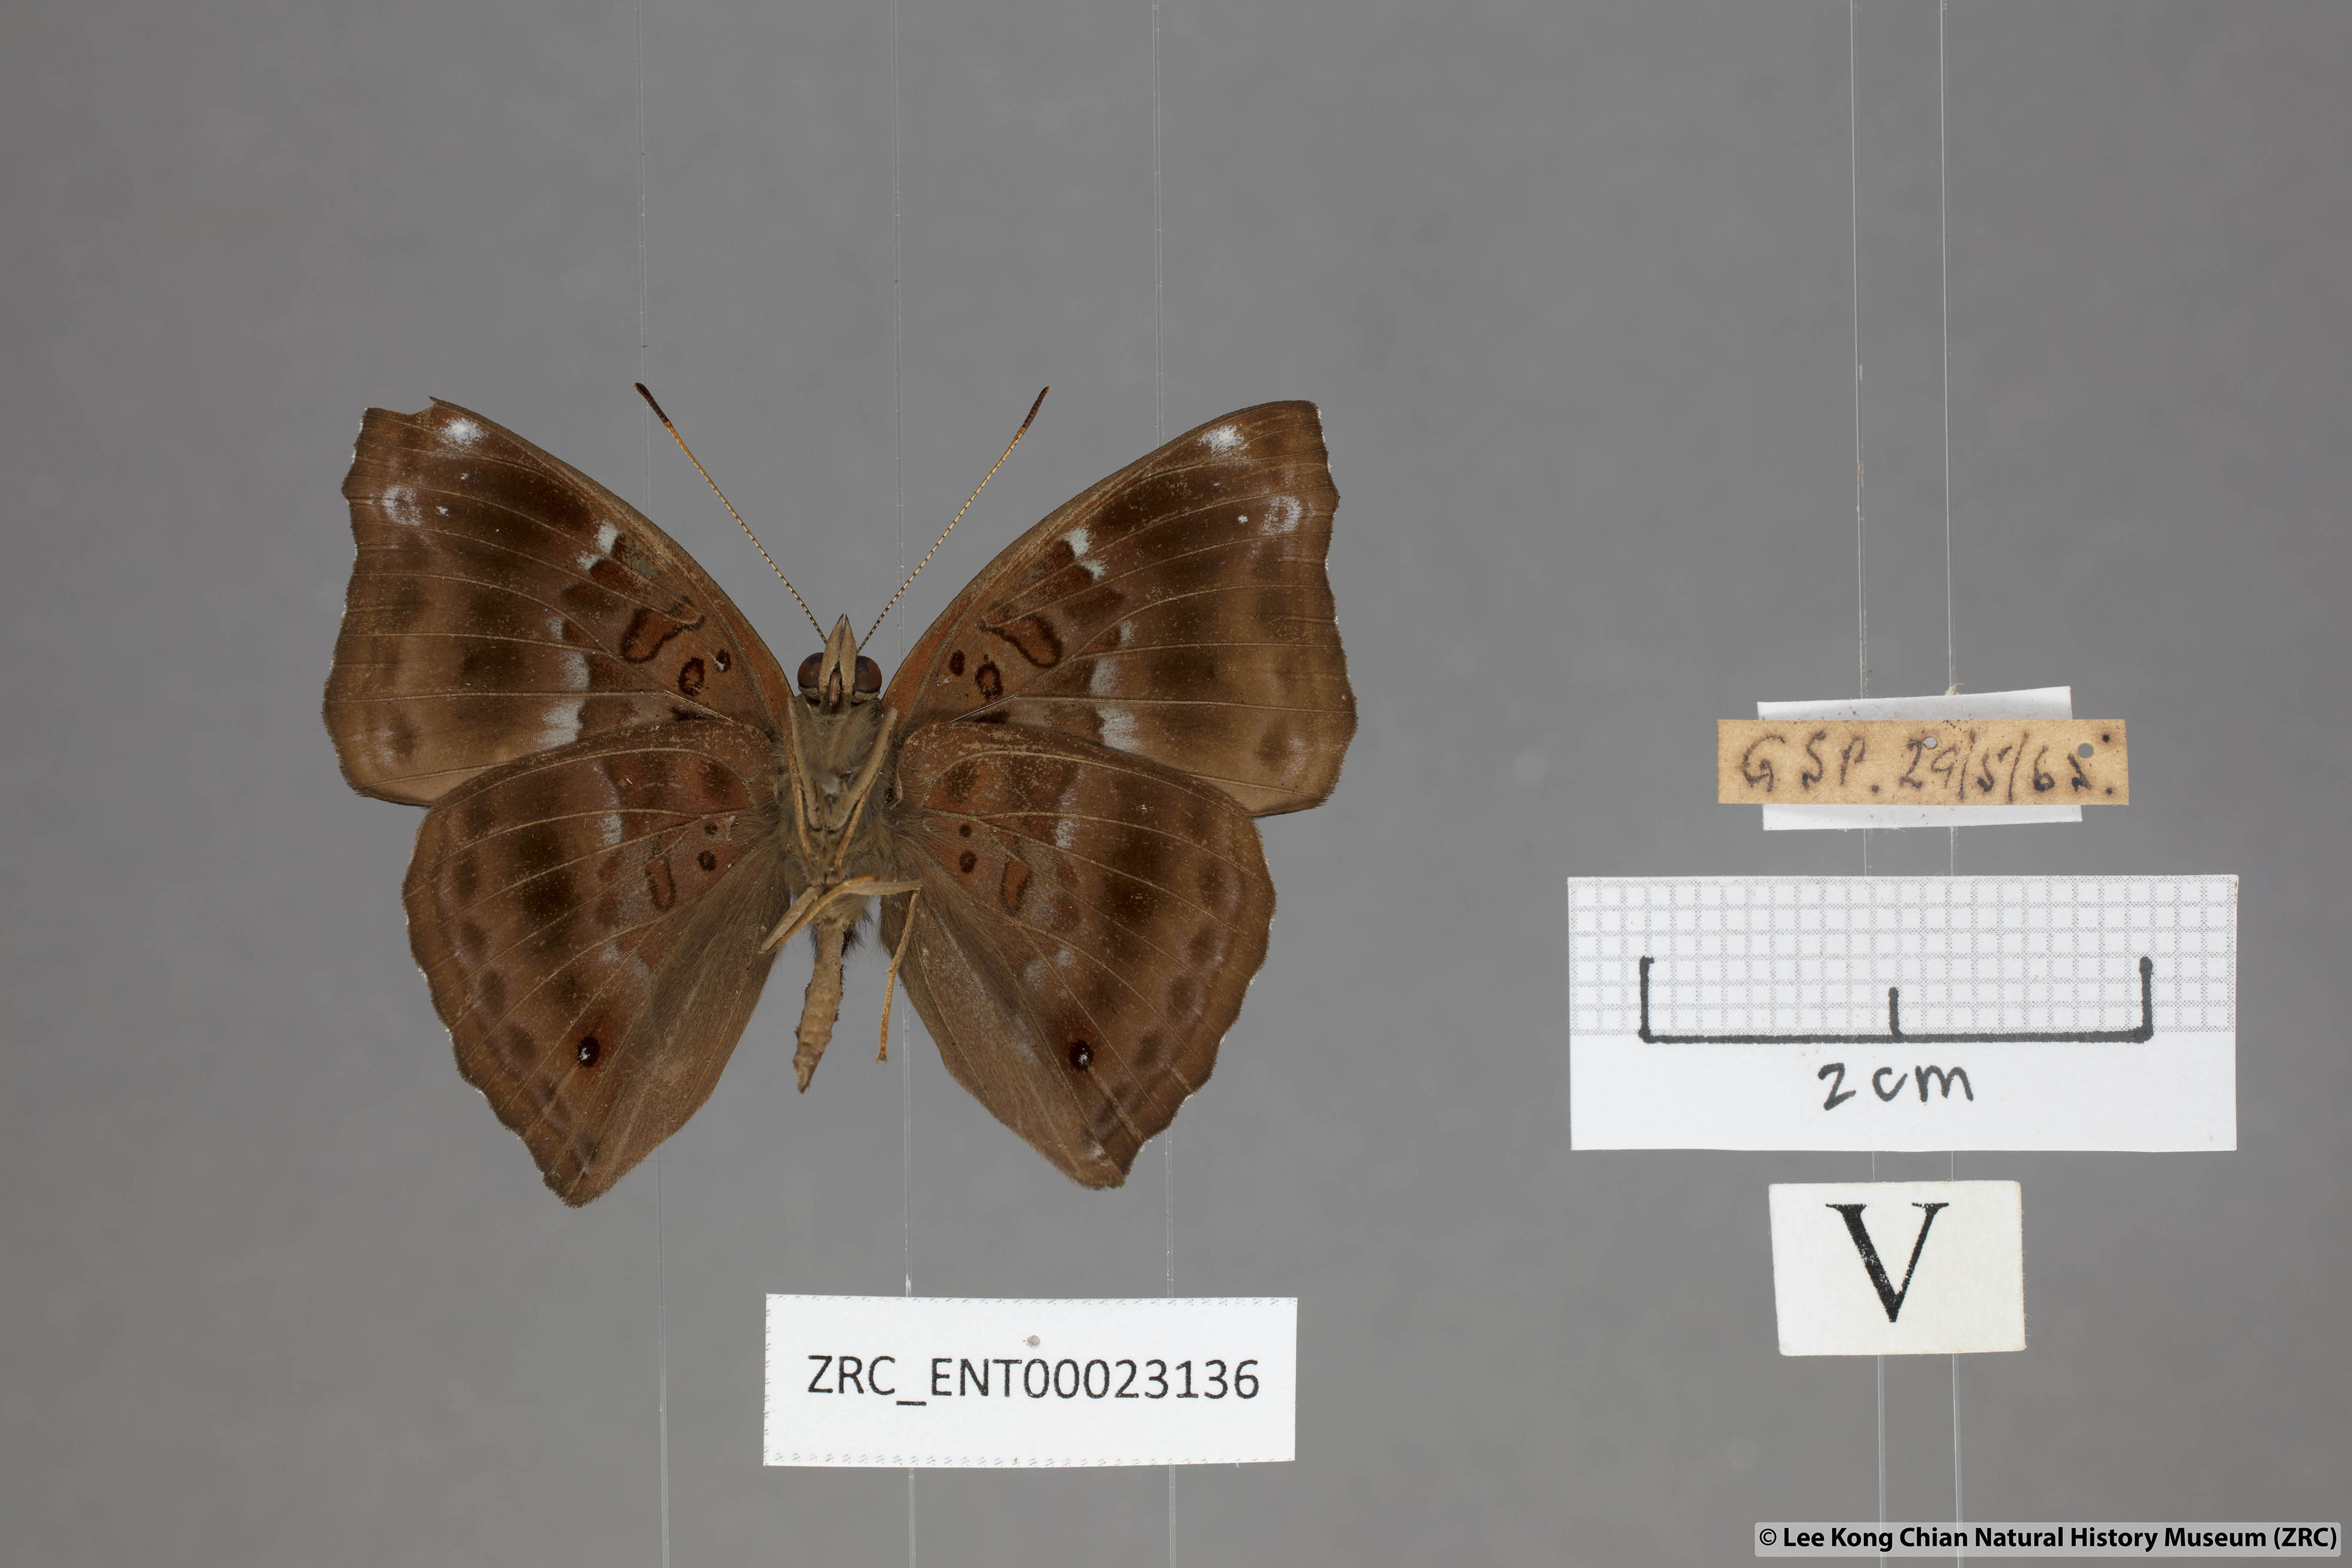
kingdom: Animalia
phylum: Arthropoda
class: Insecta
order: Lepidoptera
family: Nymphalidae
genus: Apatura
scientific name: Apatura Rohana spec
